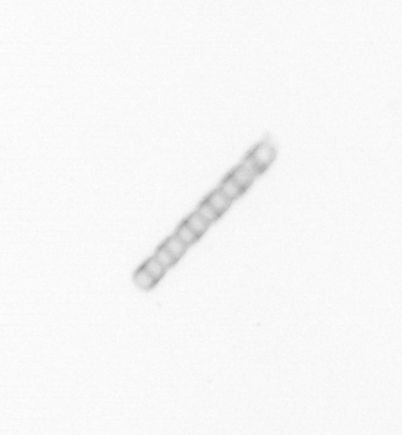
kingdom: Chromista
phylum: Ochrophyta
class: Bacillariophyceae
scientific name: Bacillariophyceae
